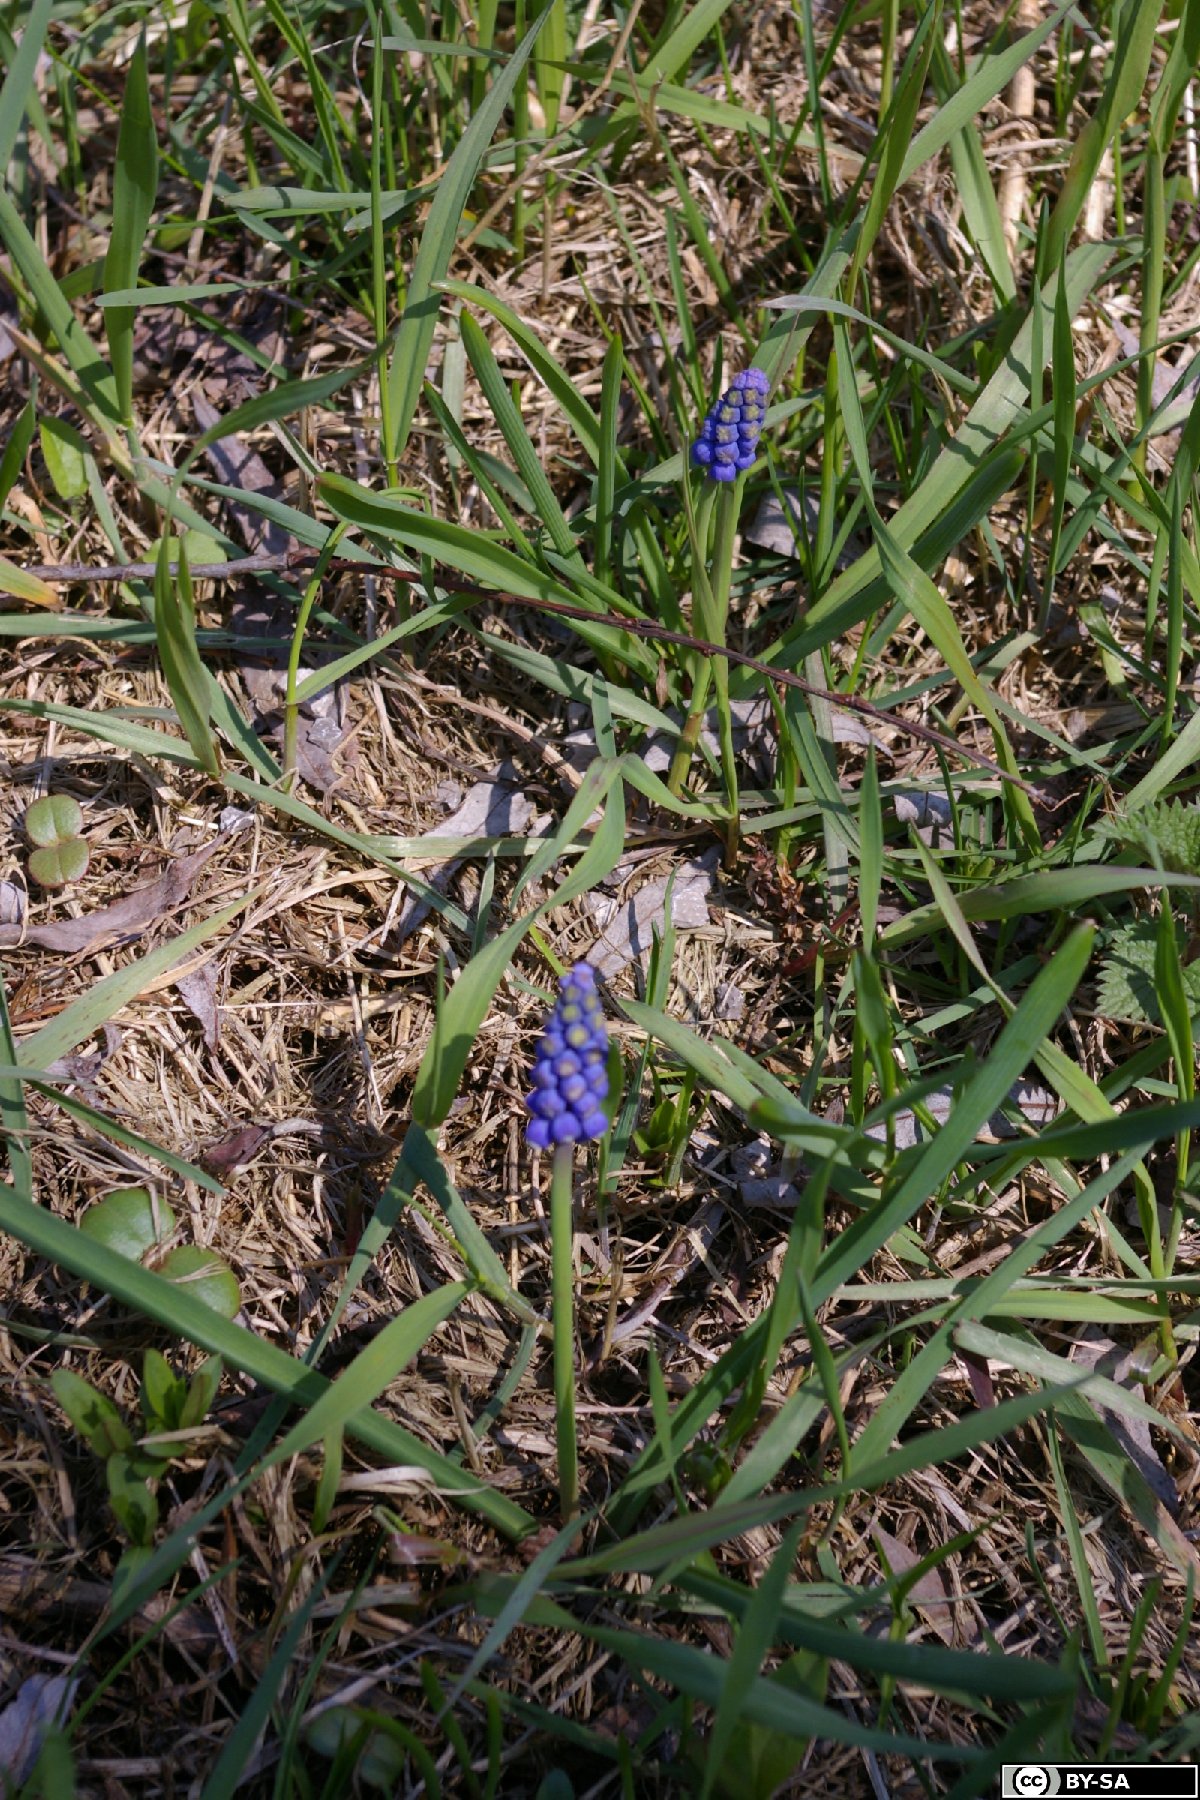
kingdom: Plantae
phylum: Tracheophyta
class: Liliopsida
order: Asparagales
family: Asparagaceae
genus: Muscari
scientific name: Muscari botryoides
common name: Compact grape-hyacinth
